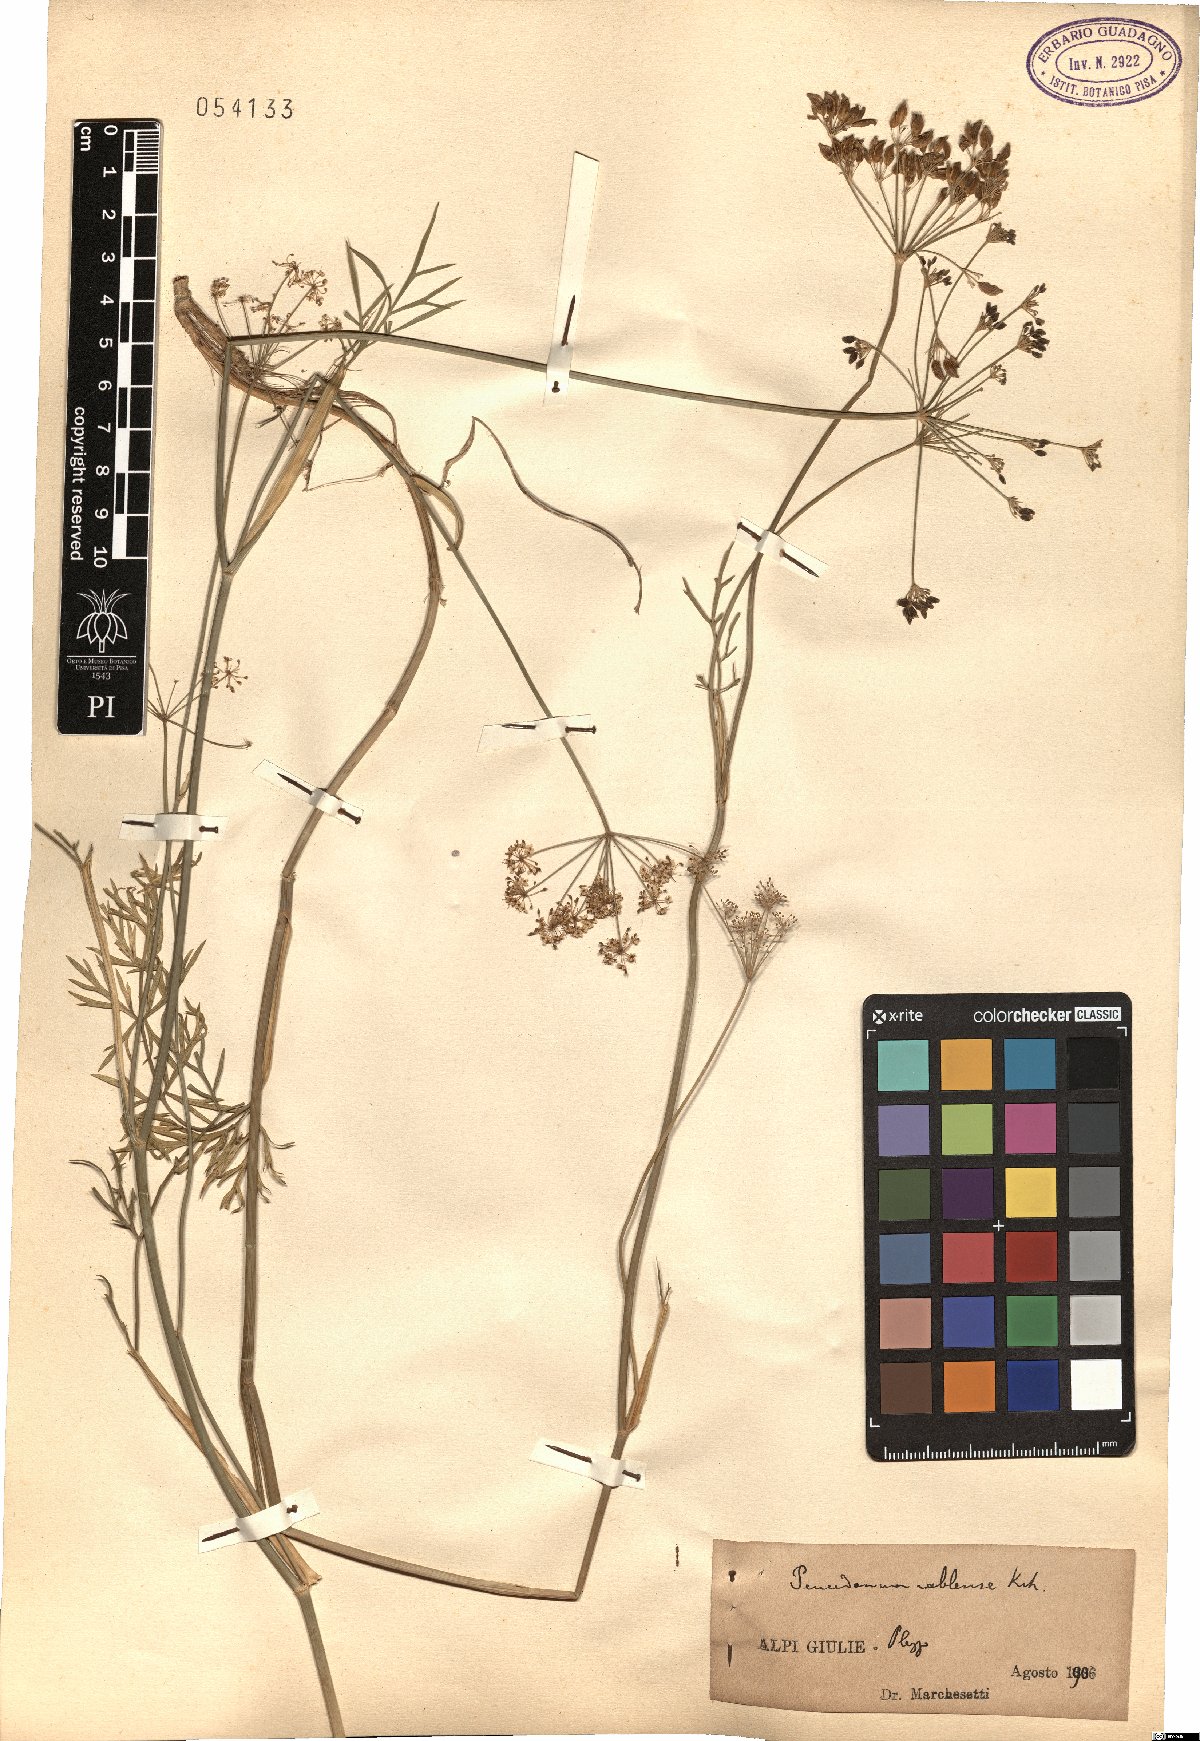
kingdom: Plantae
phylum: Tracheophyta
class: Magnoliopsida
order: Apiales
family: Apiaceae
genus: Peucedanum
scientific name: Peucedanum rablense
